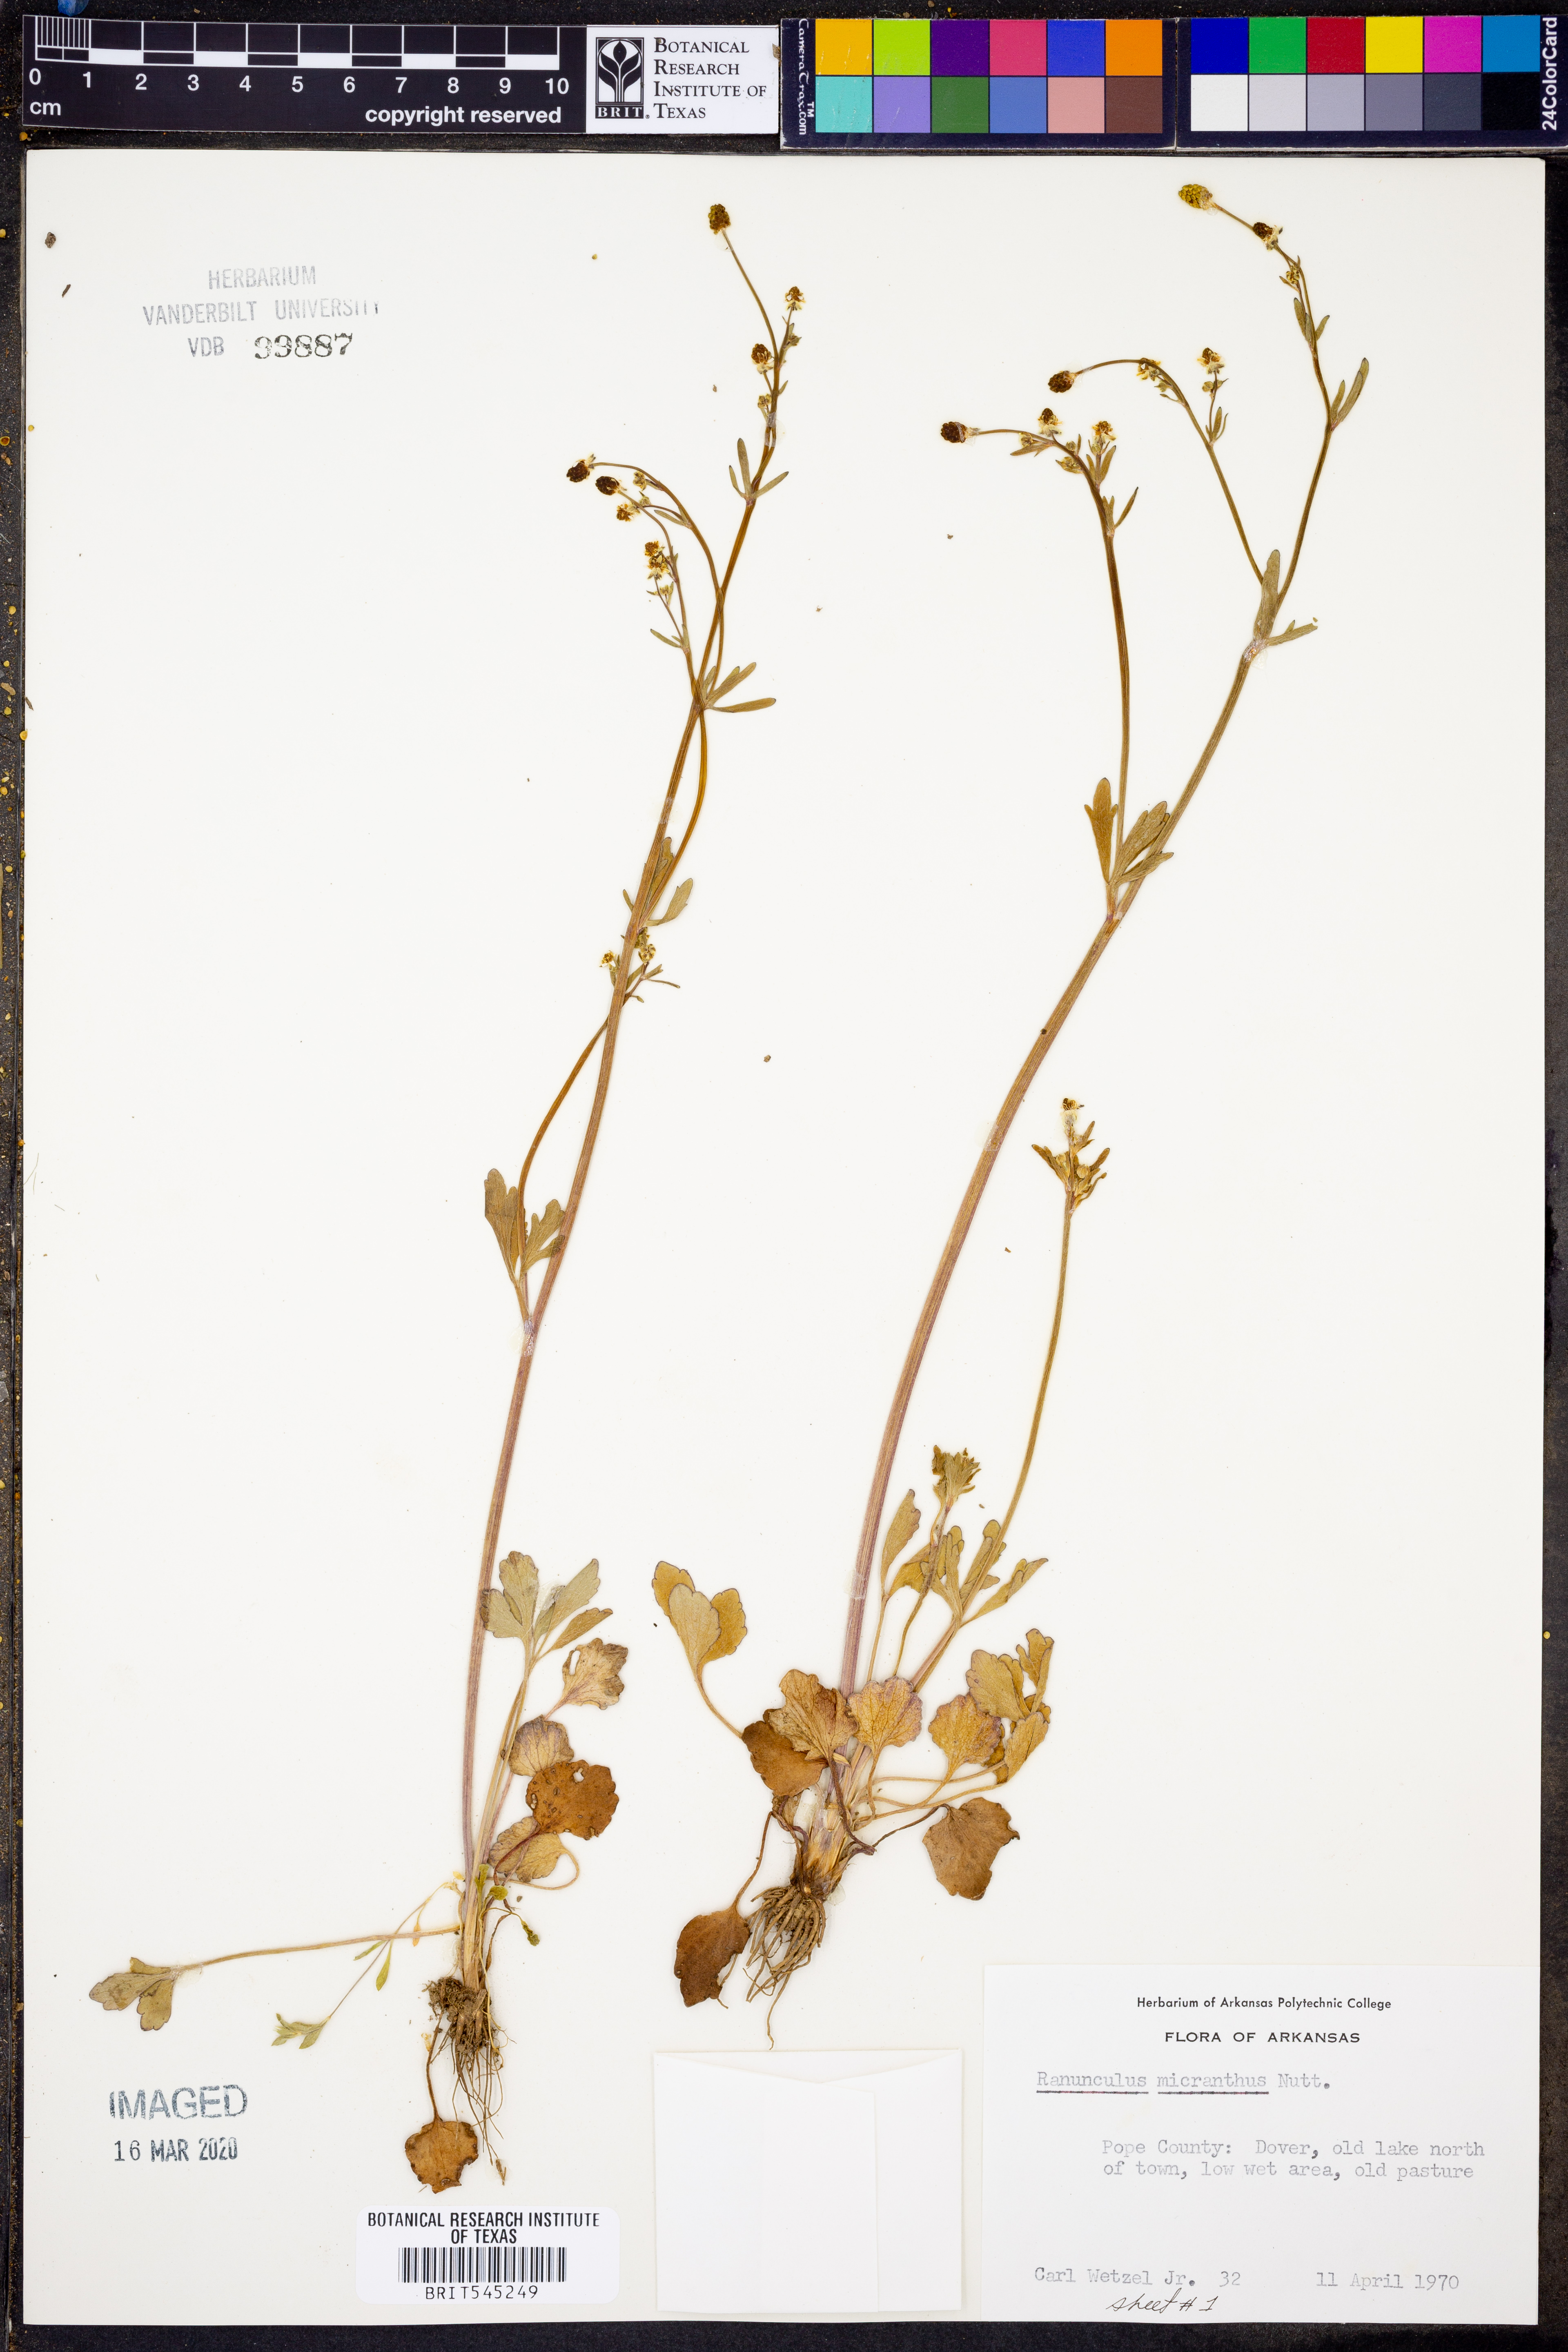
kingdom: Plantae
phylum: Tracheophyta
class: Magnoliopsida
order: Ranunculales
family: Ranunculaceae
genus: Ranunculus
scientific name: Ranunculus micranthus
